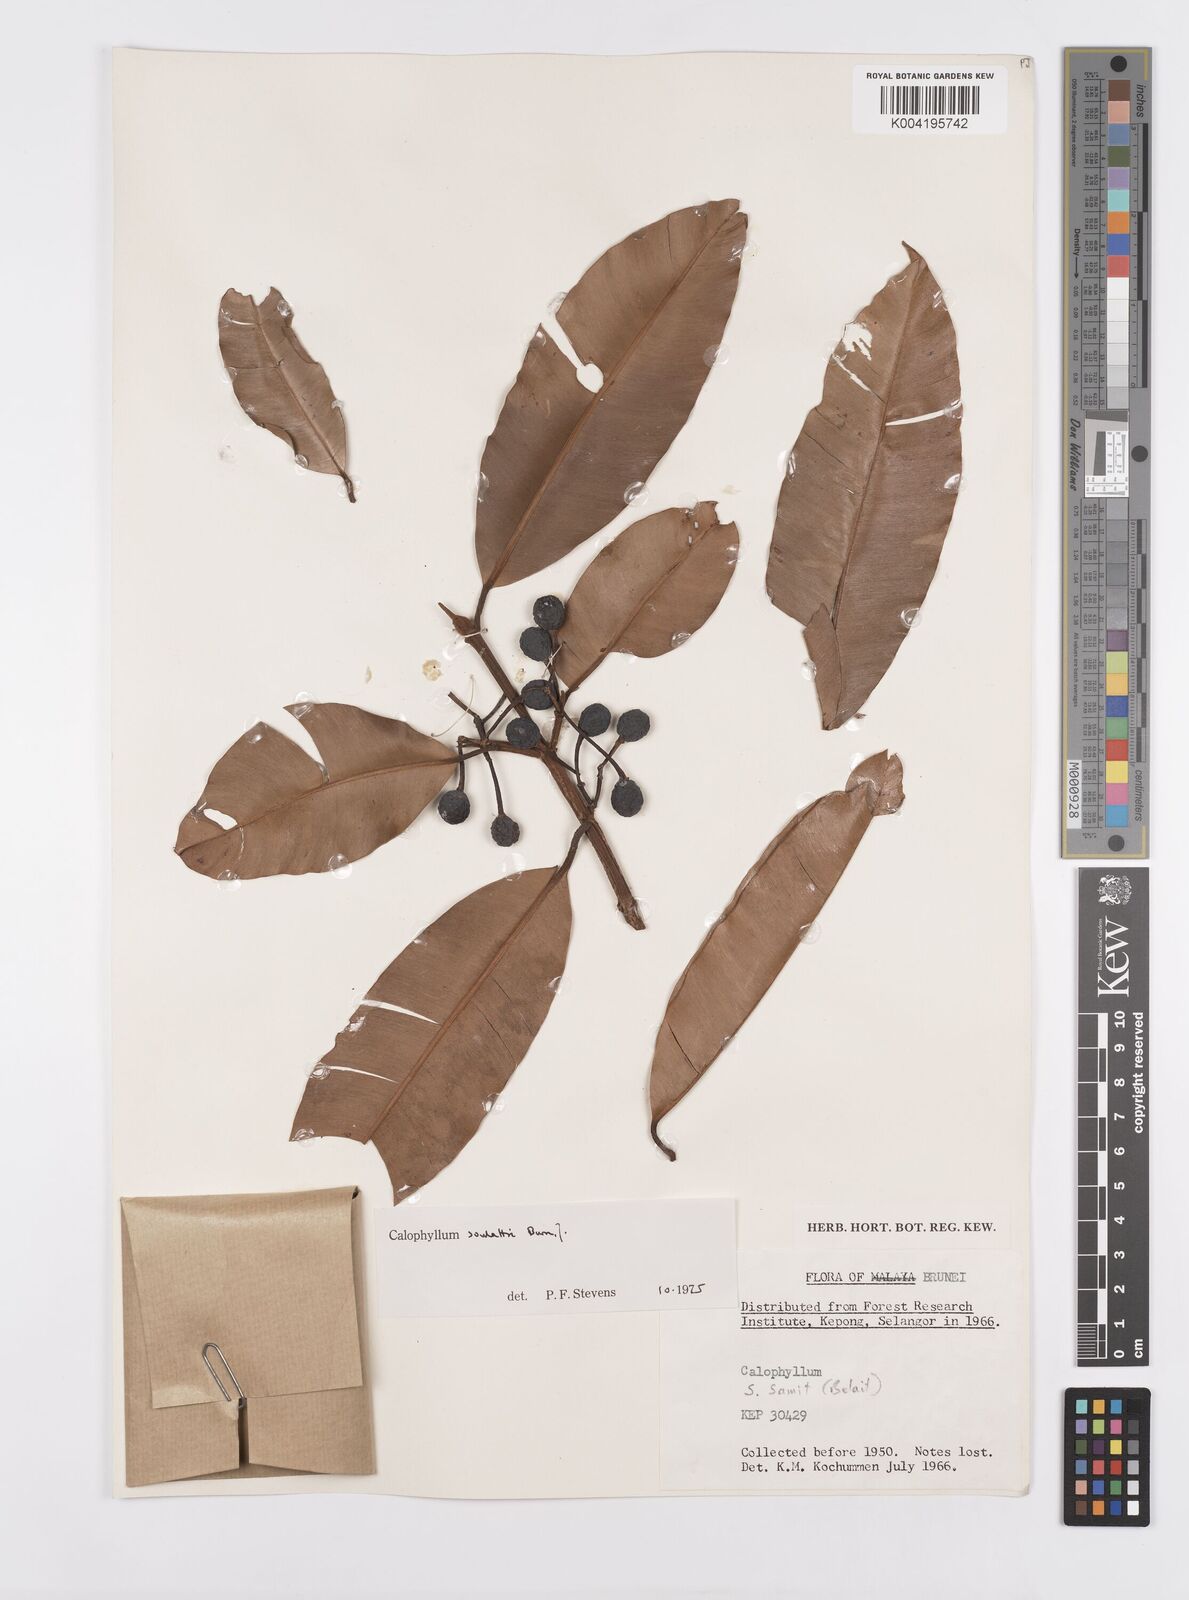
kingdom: Plantae
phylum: Tracheophyta
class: Magnoliopsida
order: Malpighiales
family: Calophyllaceae
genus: Calophyllum
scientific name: Calophyllum soulattri
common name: Bitangoor boonot
